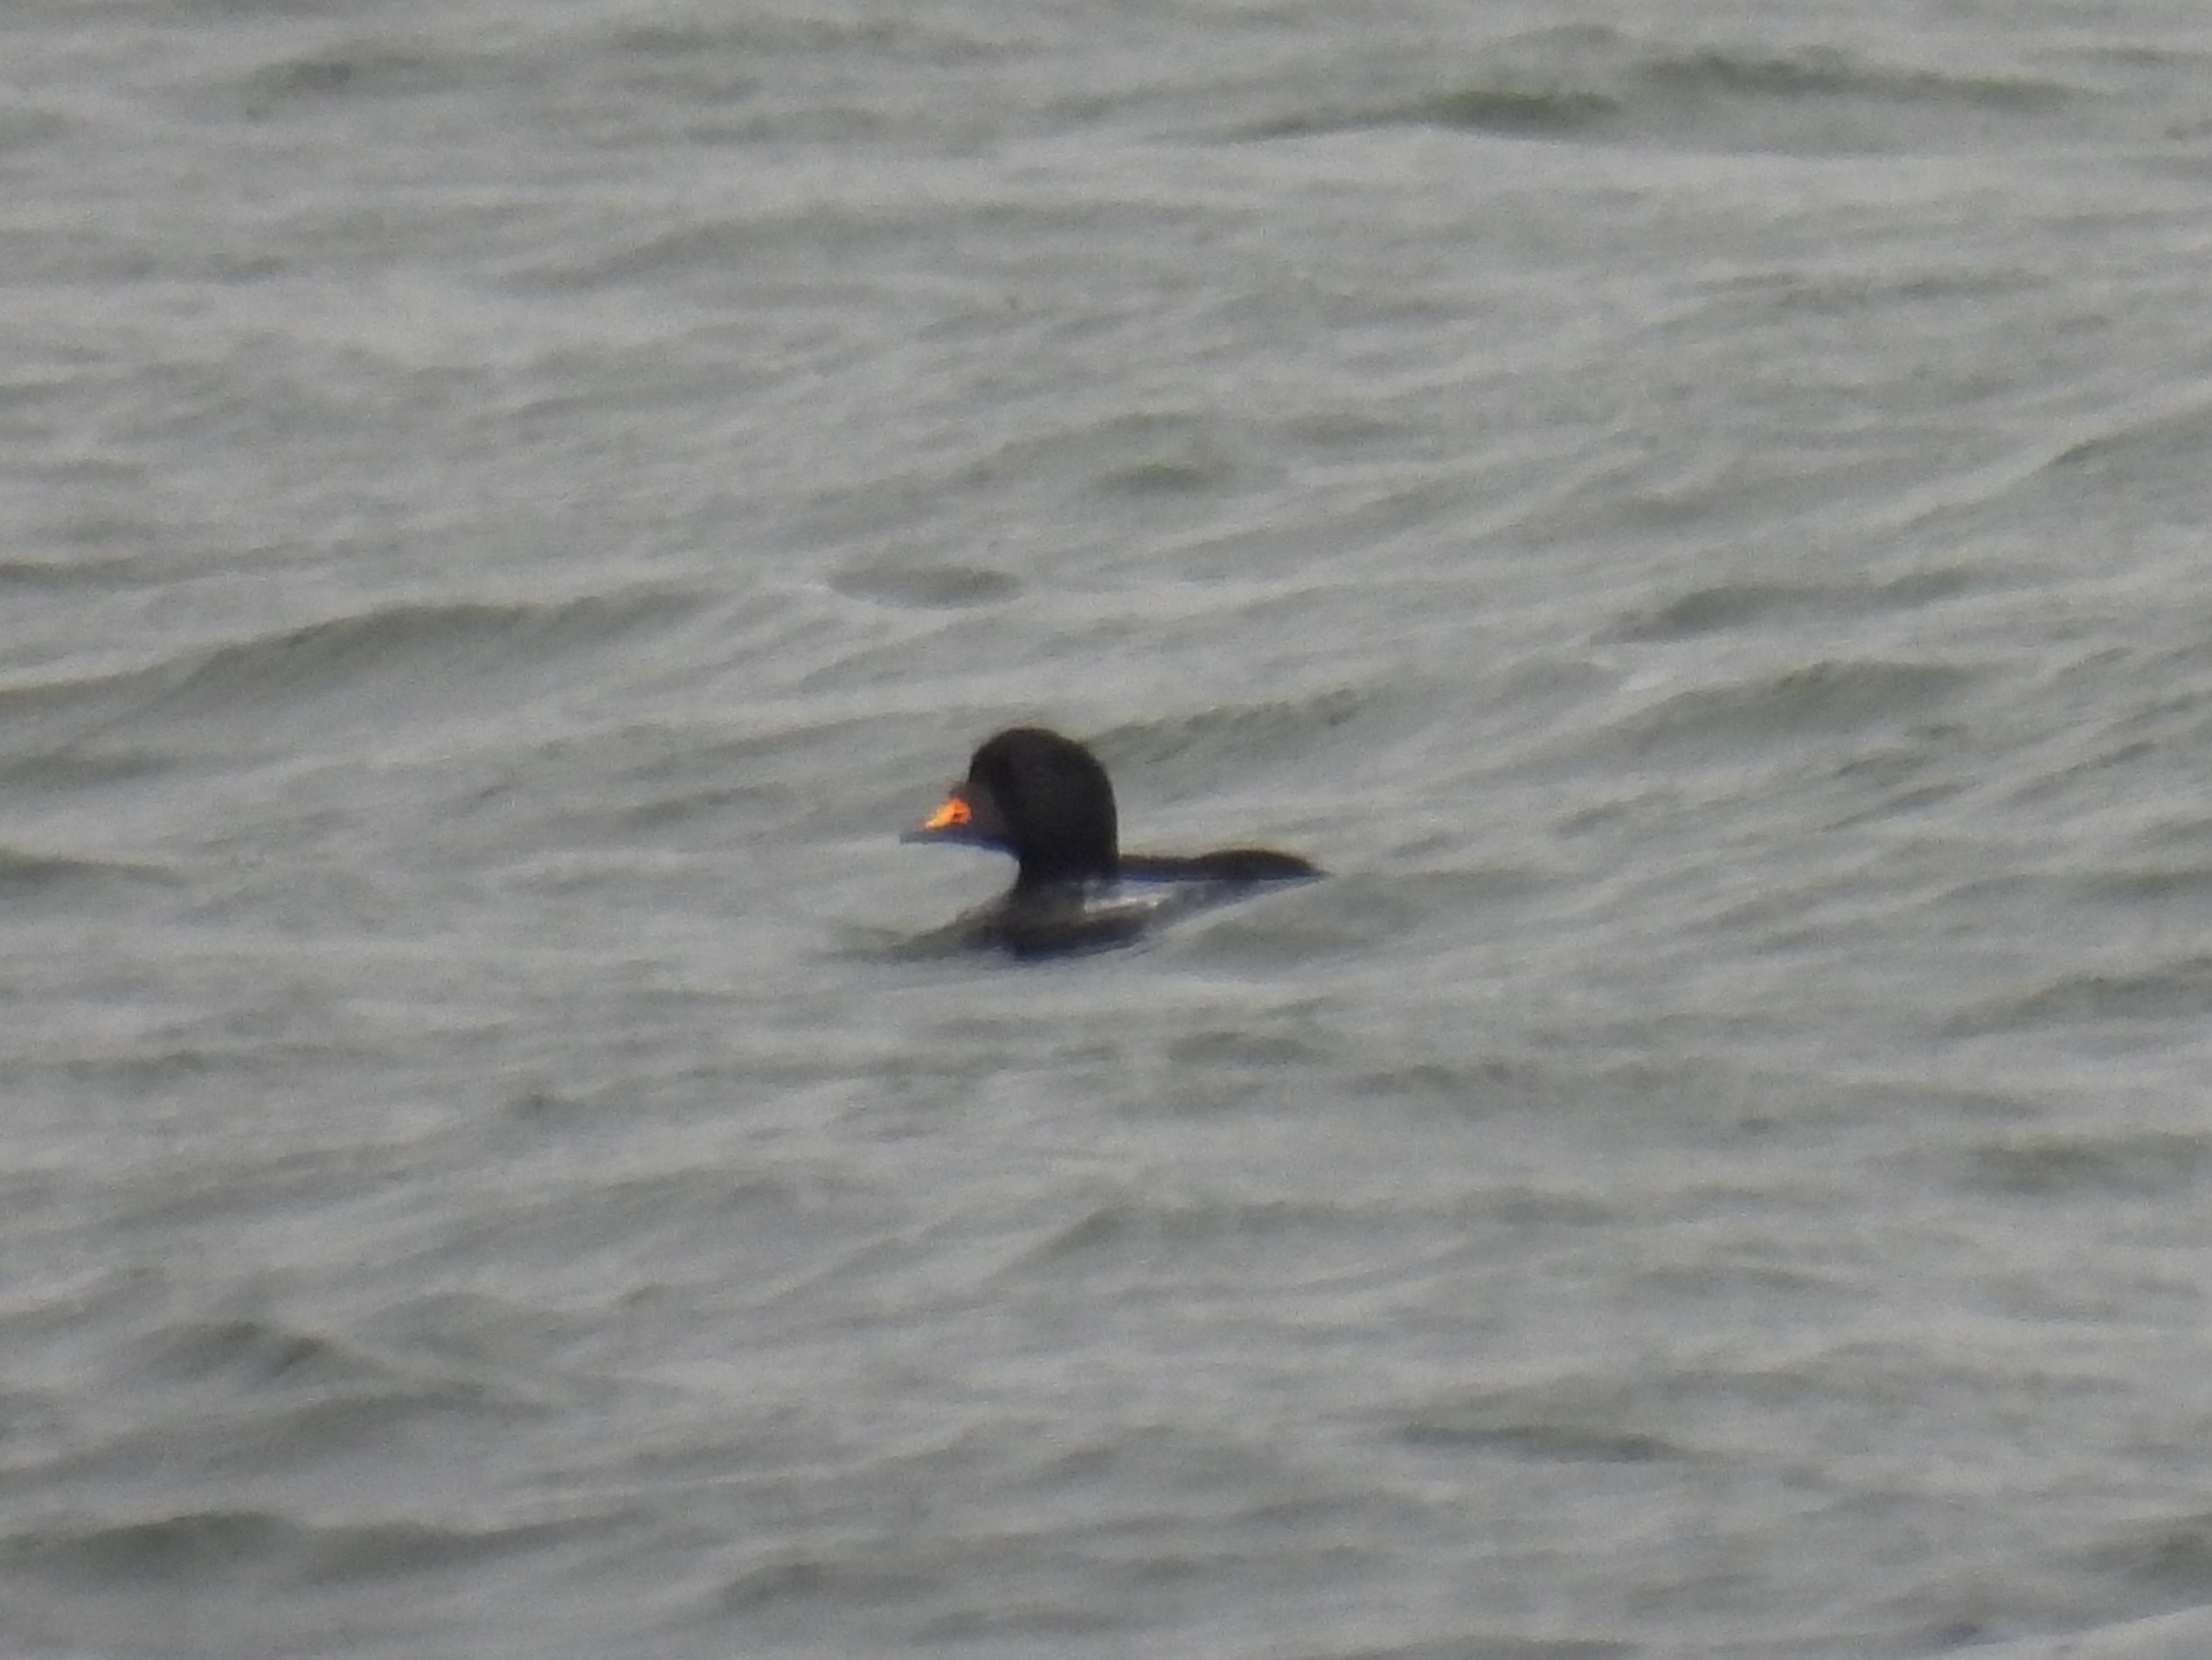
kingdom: Animalia
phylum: Chordata
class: Aves
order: Anseriformes
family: Anatidae
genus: Melanitta
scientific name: Melanitta nigra
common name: Sortand
